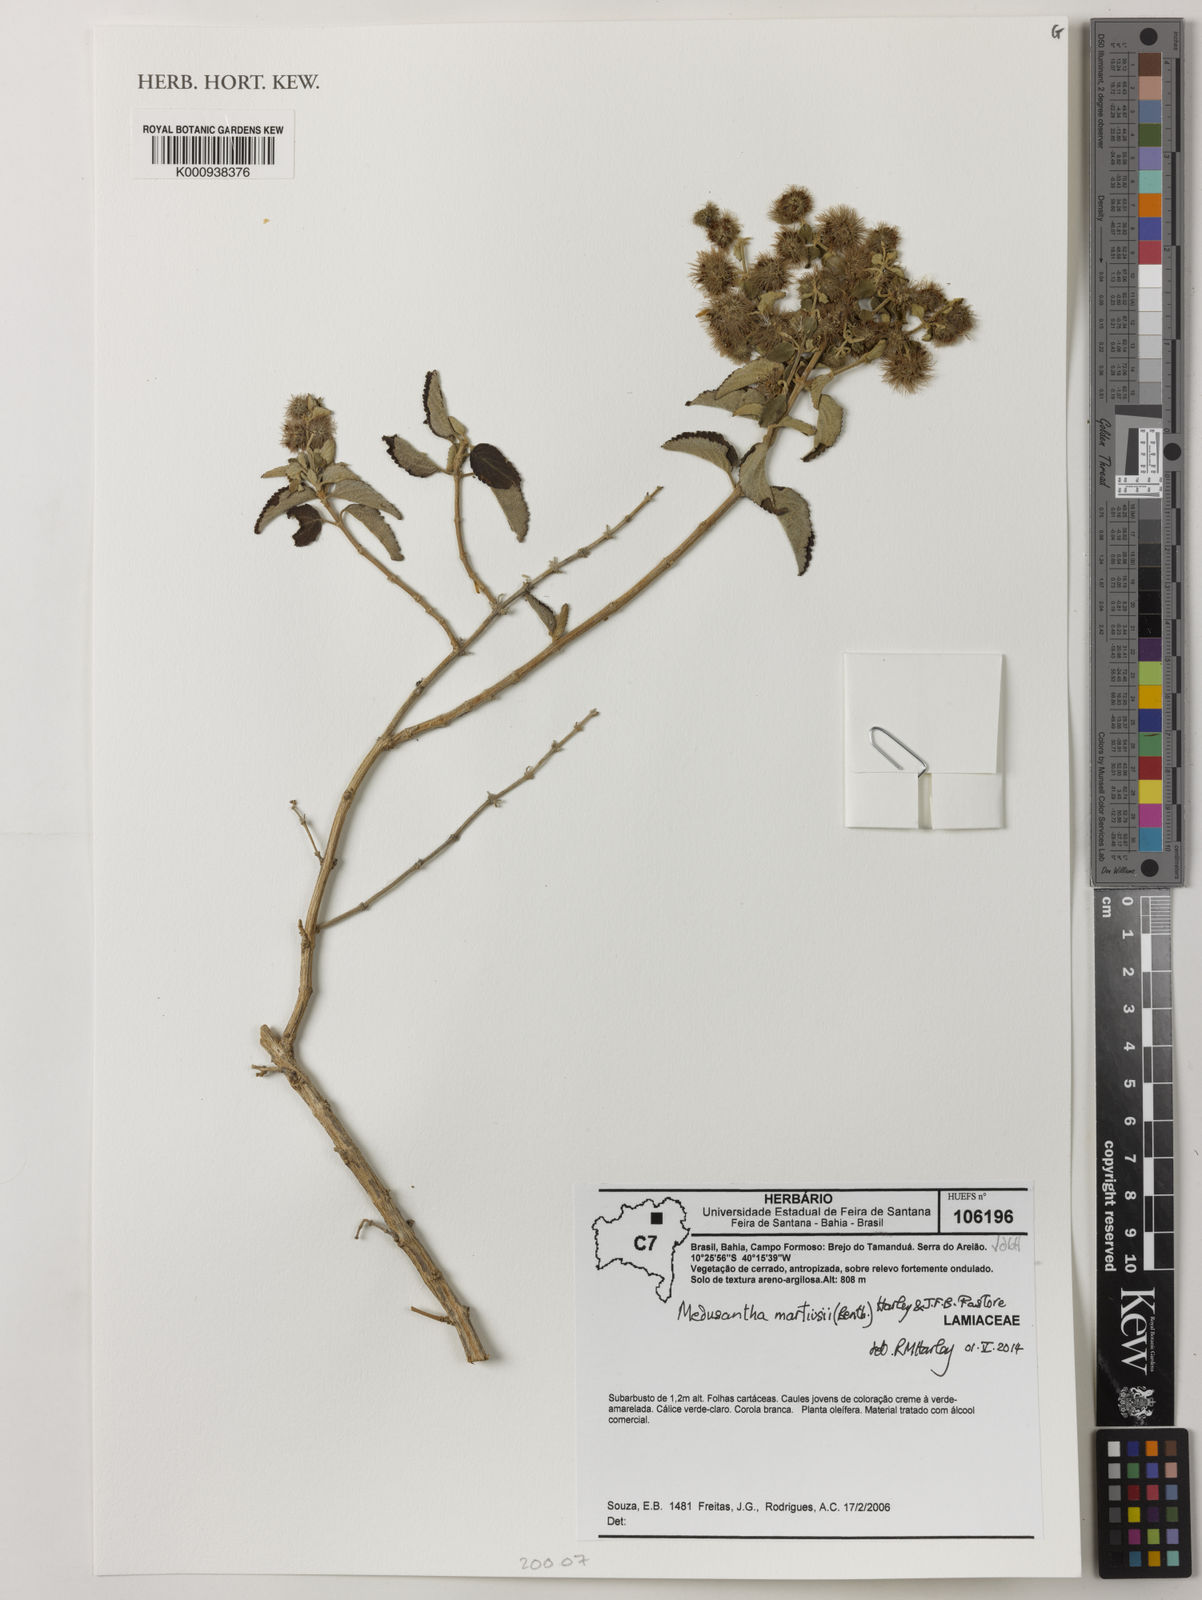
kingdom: Plantae
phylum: Tracheophyta
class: Magnoliopsida
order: Lamiales
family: Lamiaceae
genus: Medusantha
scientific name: Medusantha martiusii
